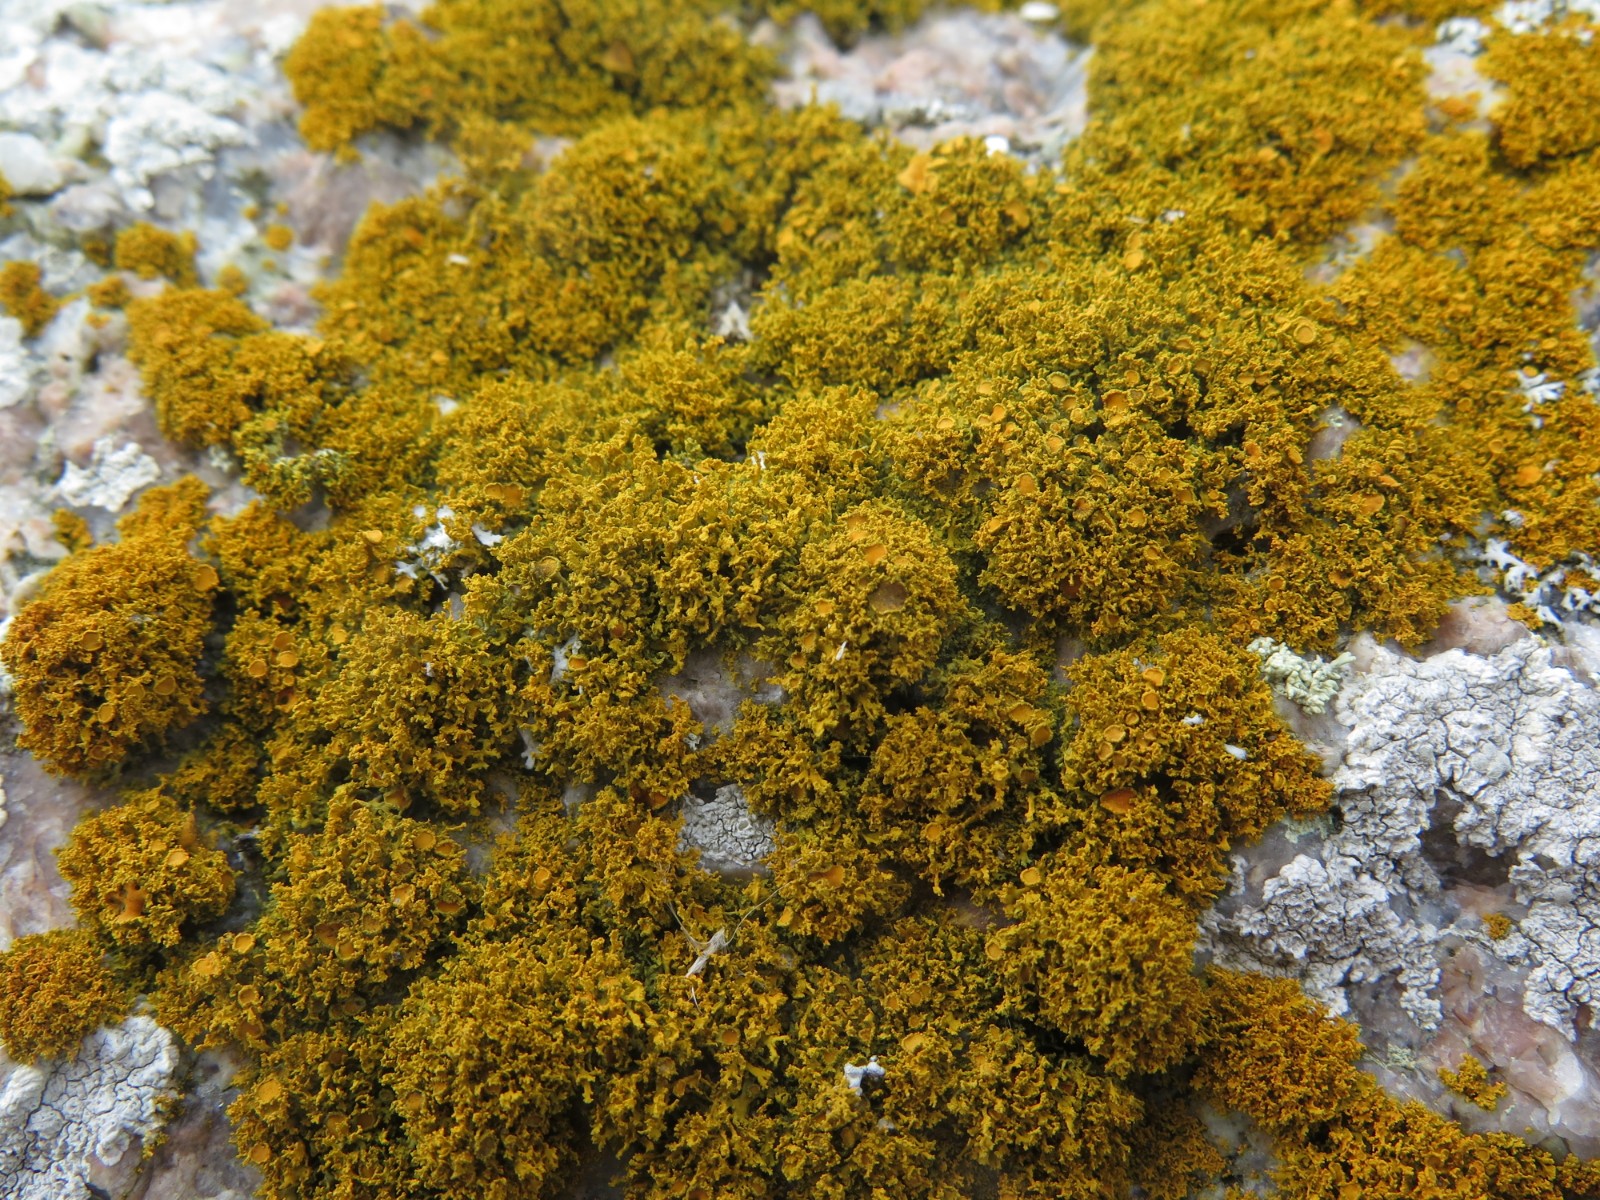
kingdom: Fungi
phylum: Ascomycota
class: Lecanoromycetes
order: Teloschistales
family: Teloschistaceae
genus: Polycauliona
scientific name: Polycauliona candelaria
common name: tue-orangelav
